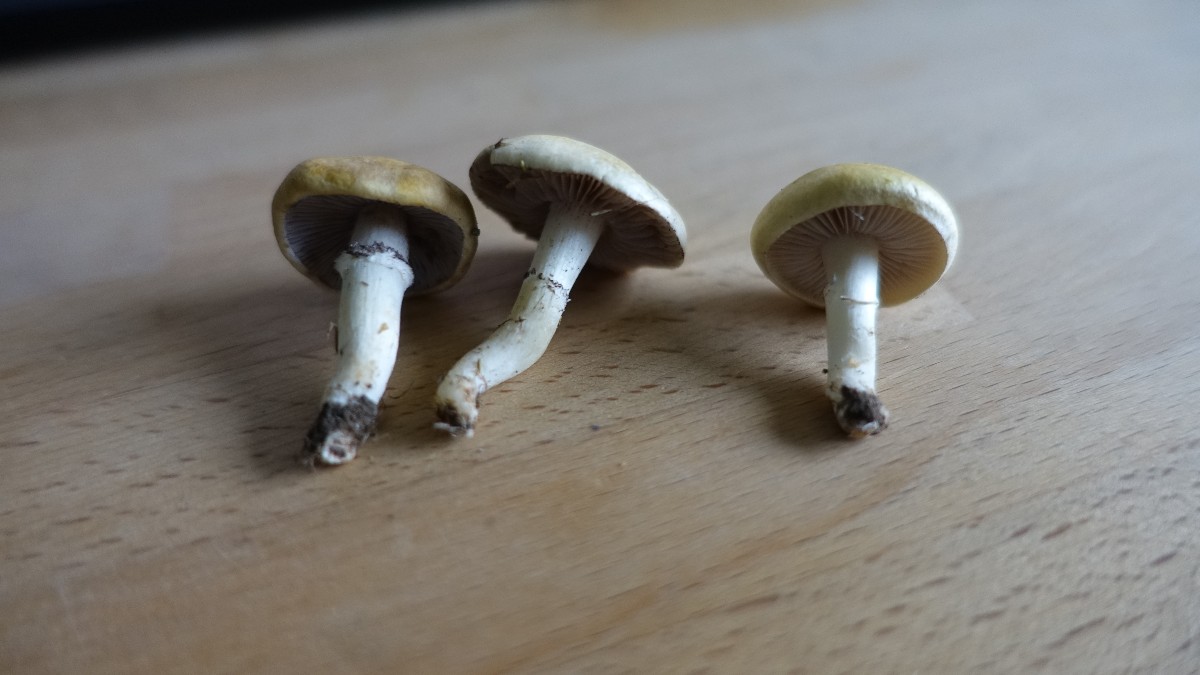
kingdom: Fungi
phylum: Basidiomycota
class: Agaricomycetes
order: Agaricales
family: Hymenogastraceae
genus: Psilocybe
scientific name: Psilocybe coronilla
